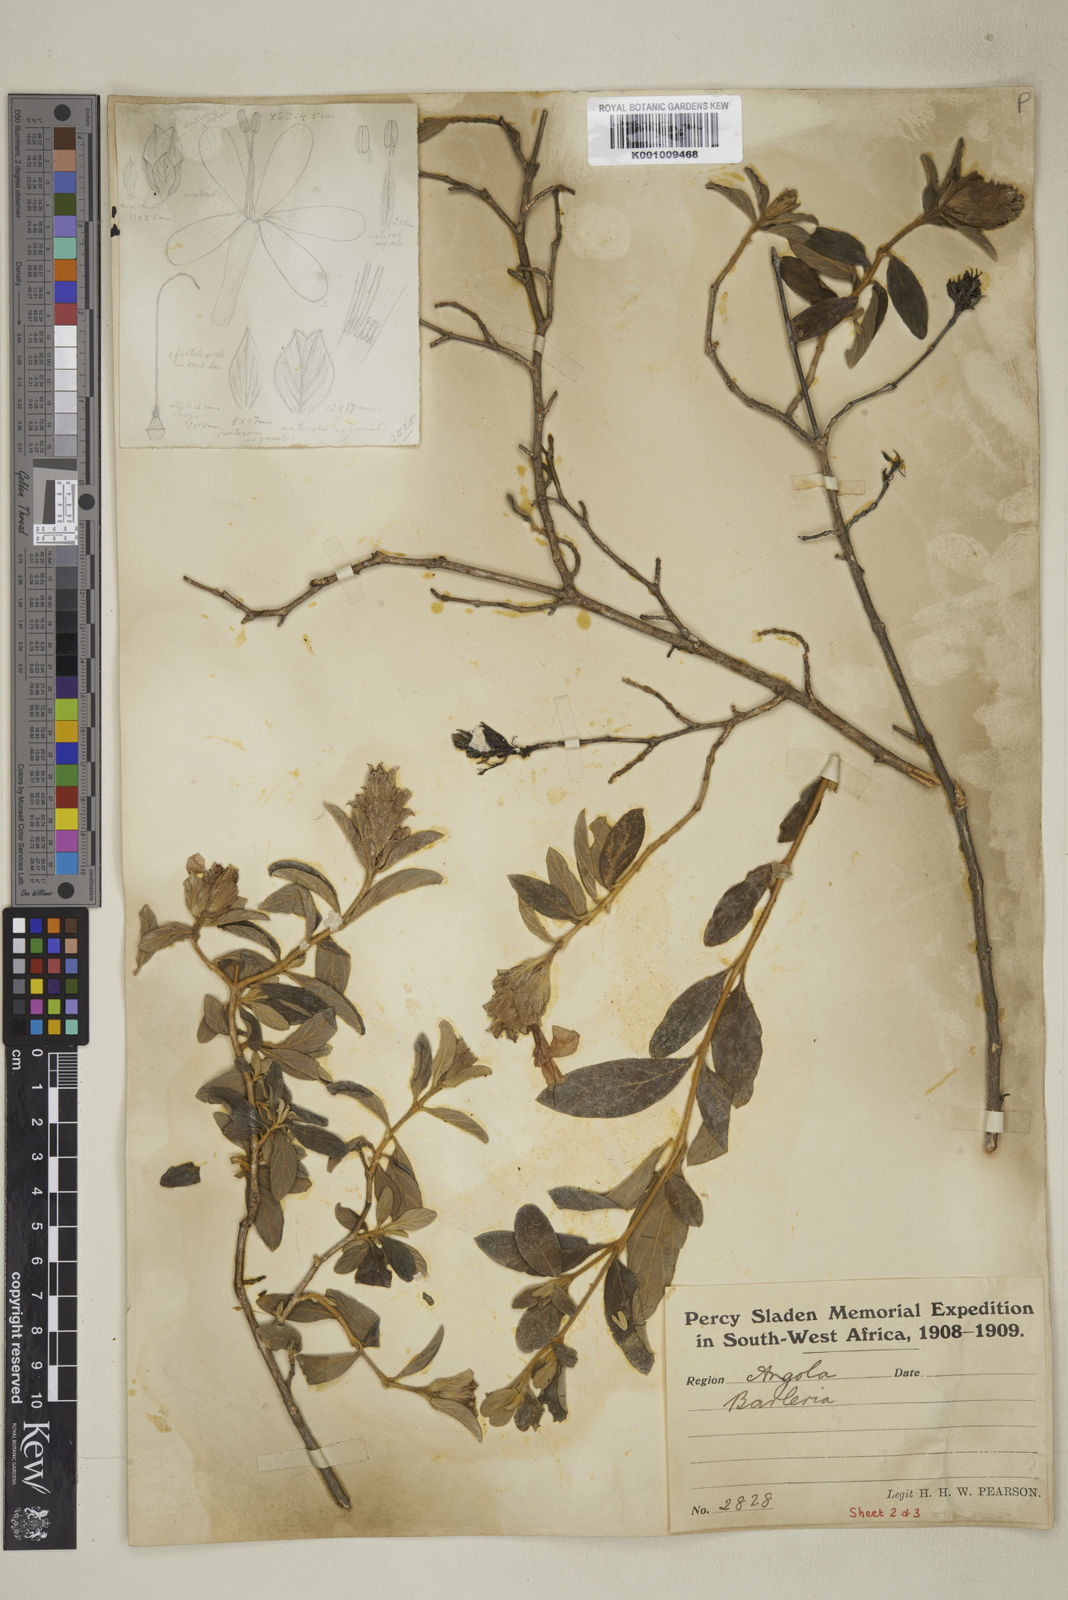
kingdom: Plantae
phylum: Tracheophyta
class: Magnoliopsida
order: Lamiales
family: Acanthaceae
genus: Barleria
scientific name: Barleria taitensis
